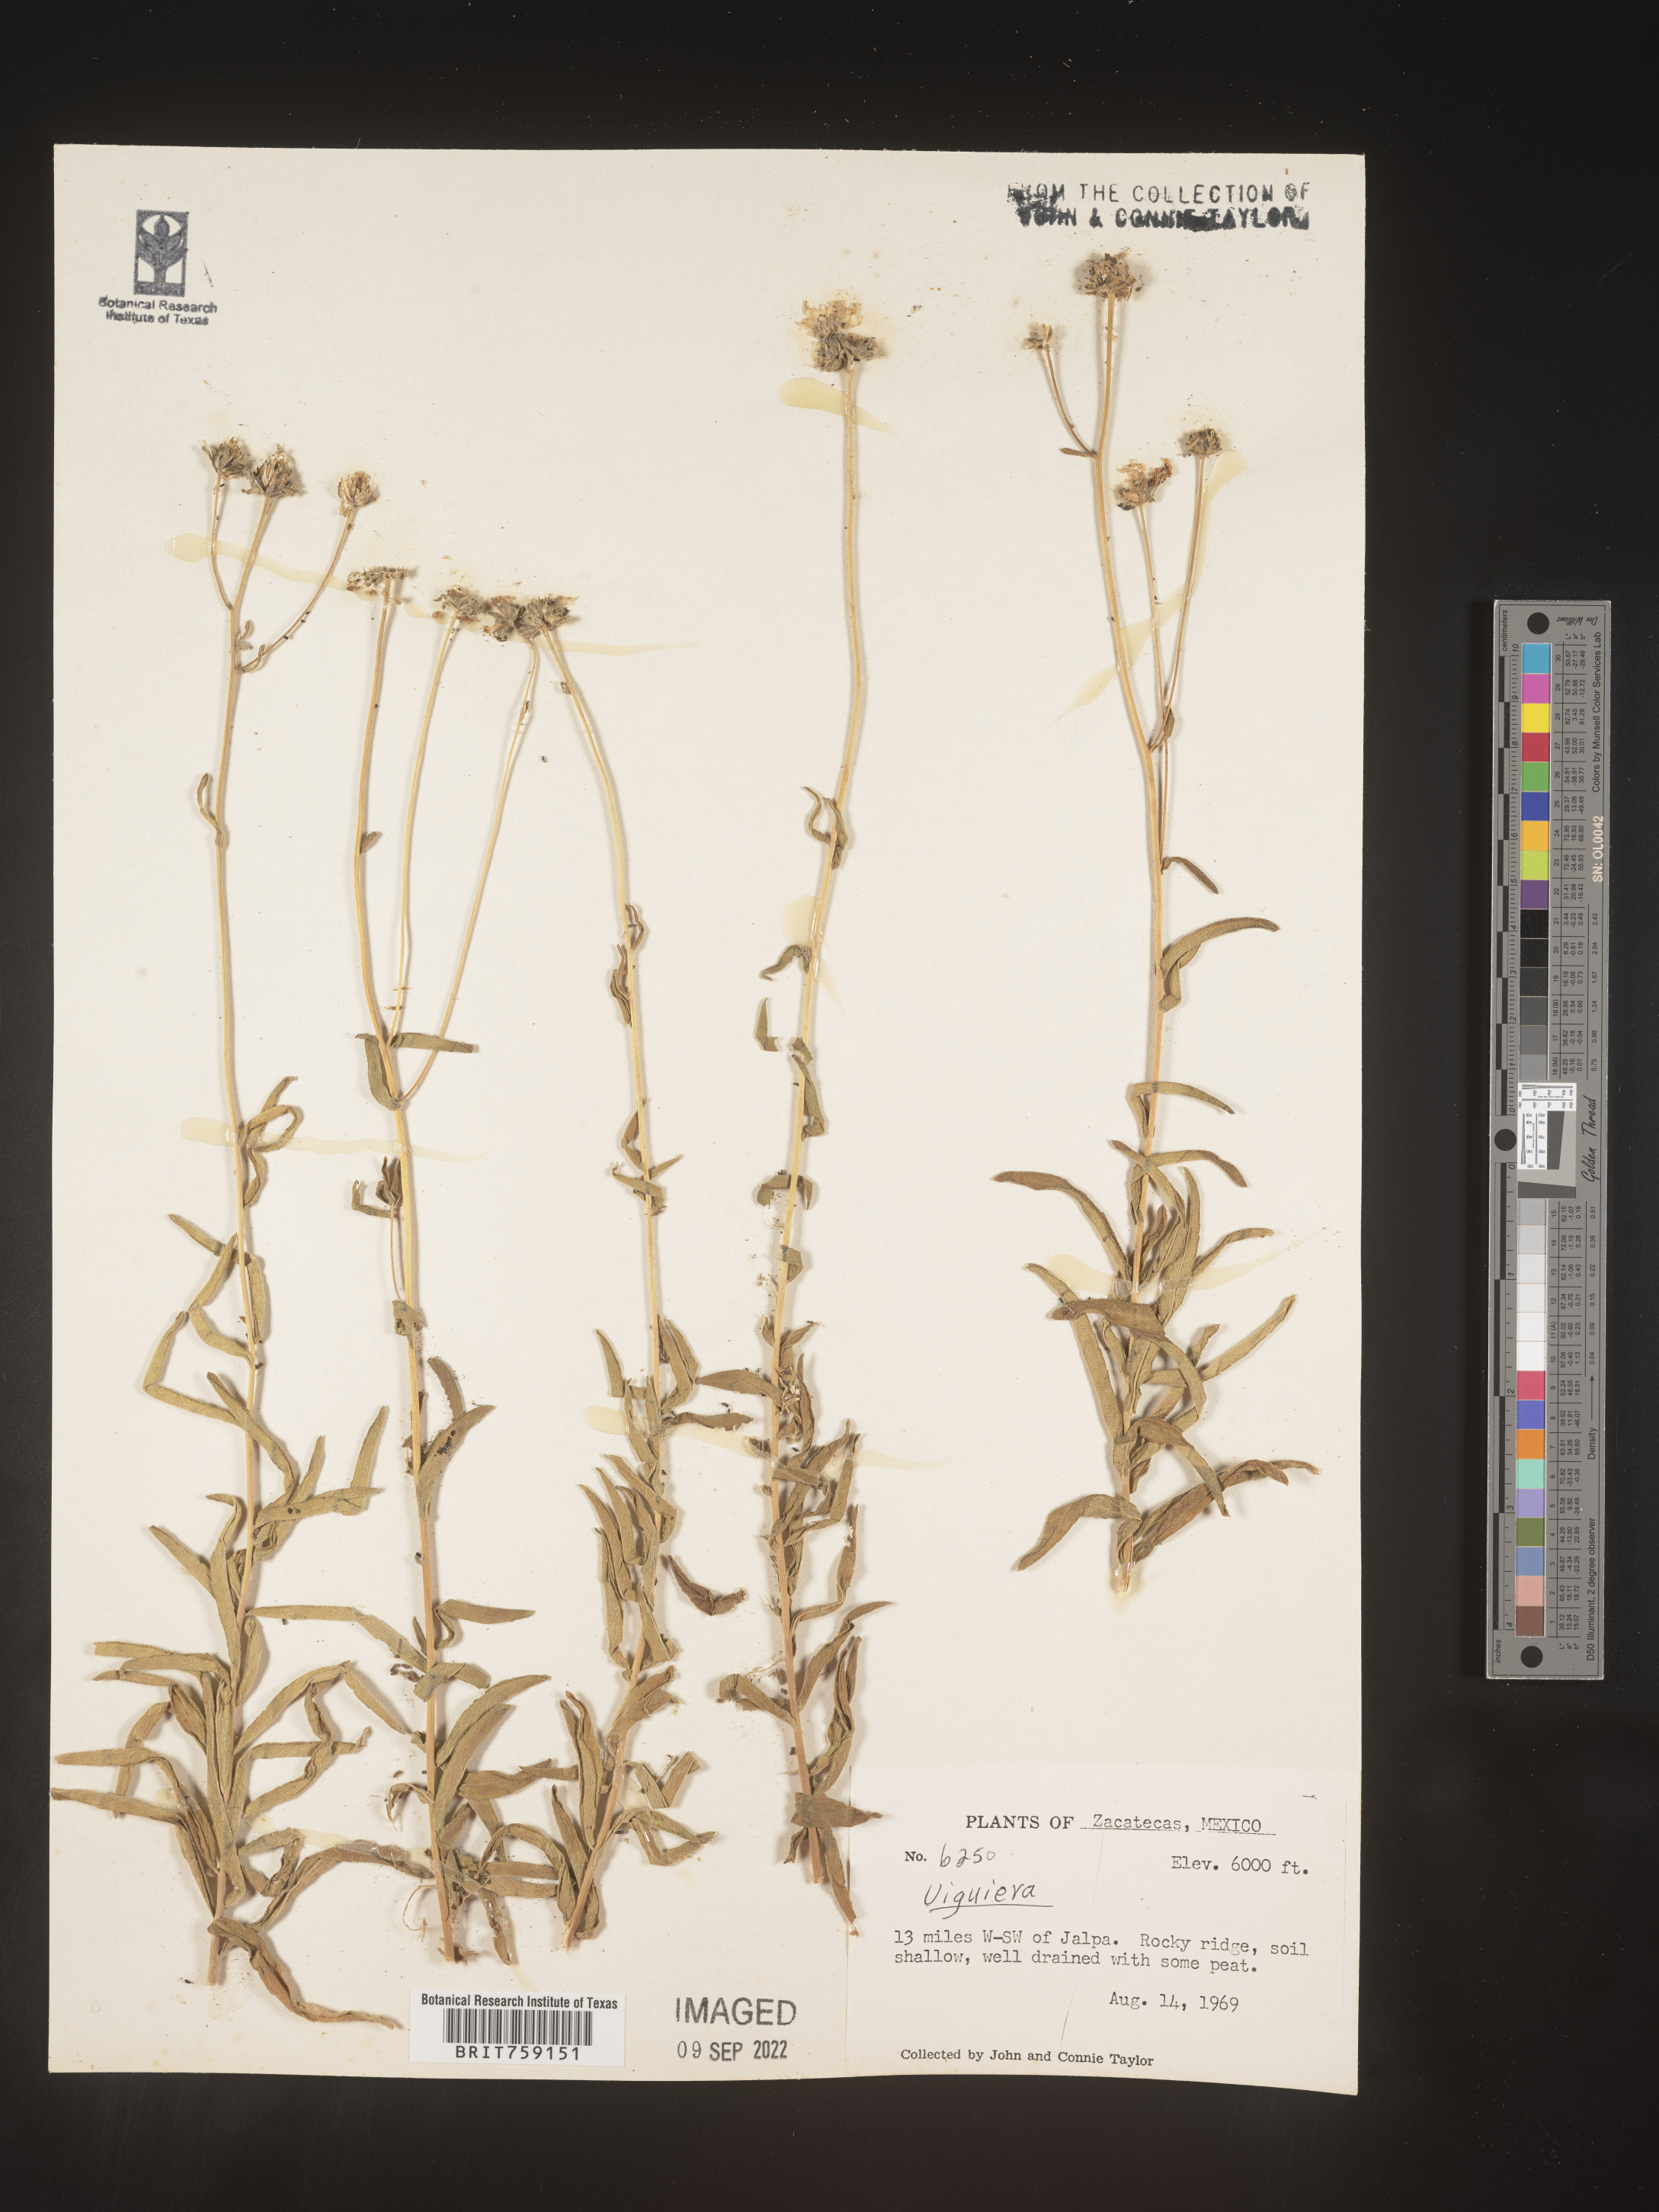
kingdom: Plantae
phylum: Tracheophyta
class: Magnoliopsida
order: Asterales
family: Asteraceae
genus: Viguiera
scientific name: Viguiera
